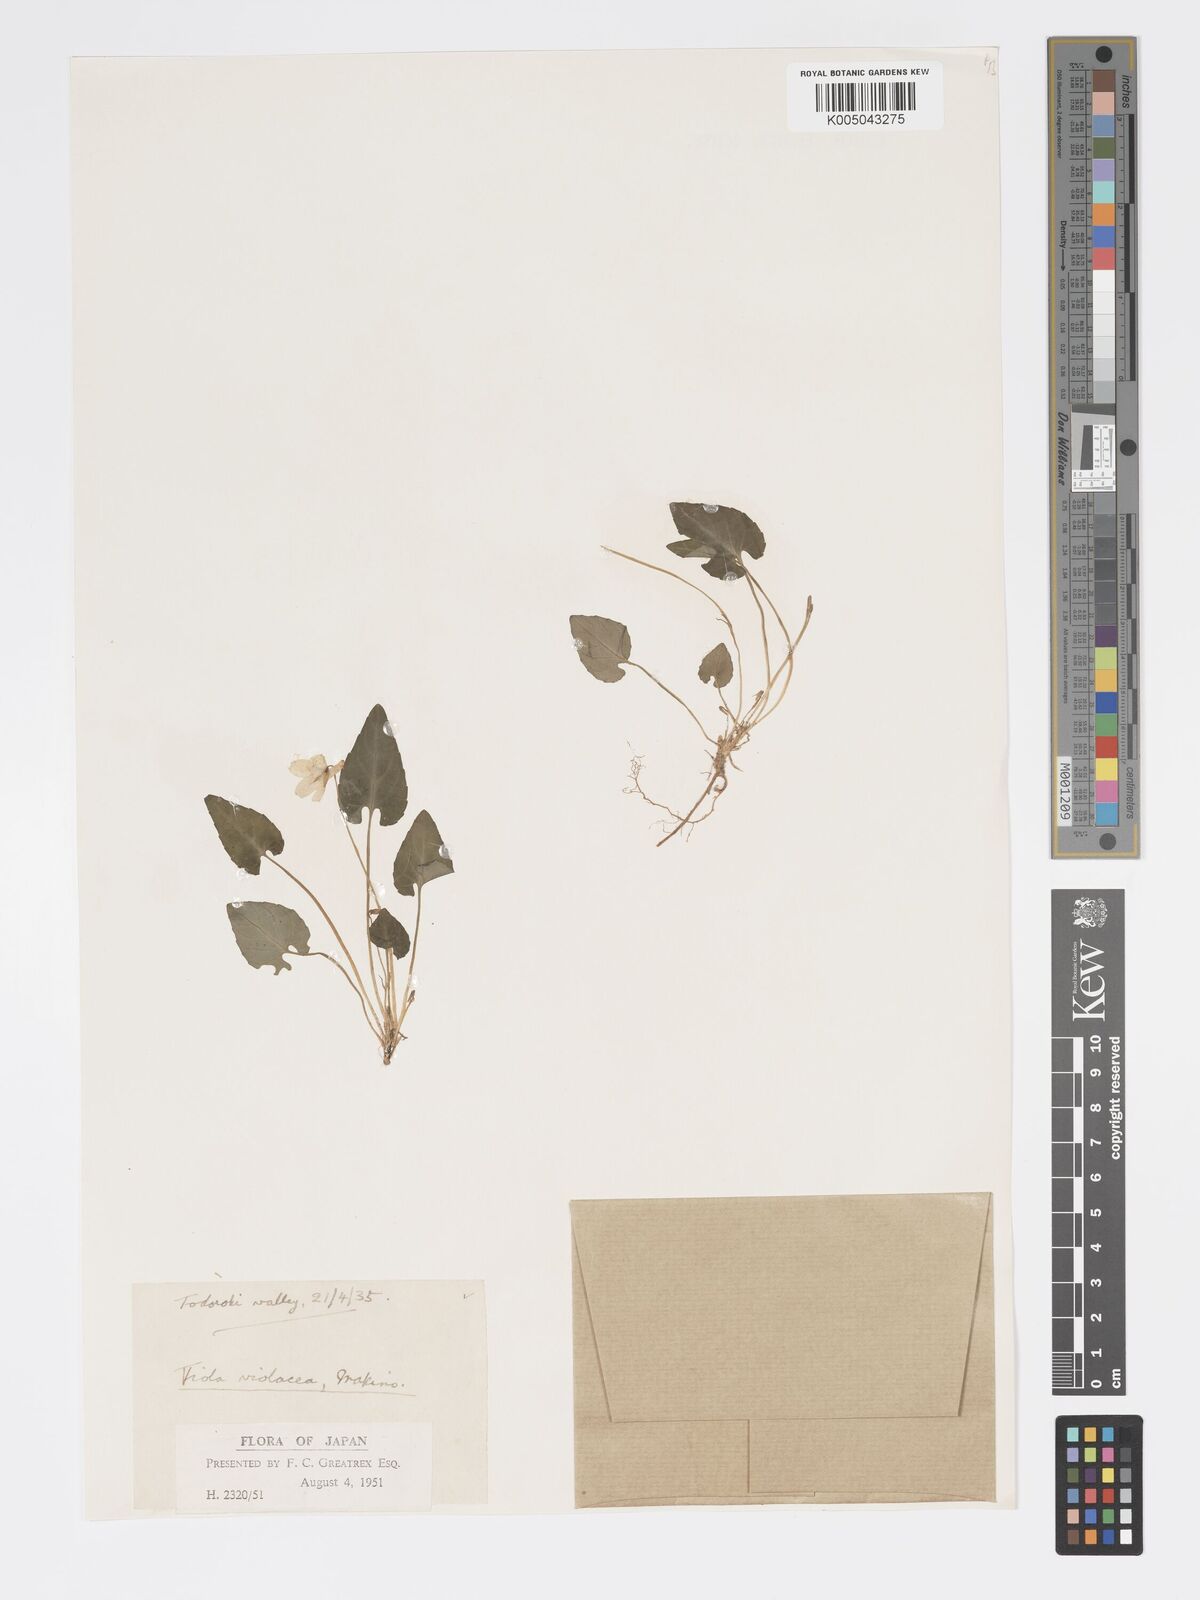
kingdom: Plantae
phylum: Tracheophyta
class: Magnoliopsida
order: Malpighiales
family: Violaceae
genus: Viola
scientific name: Viola violacea
